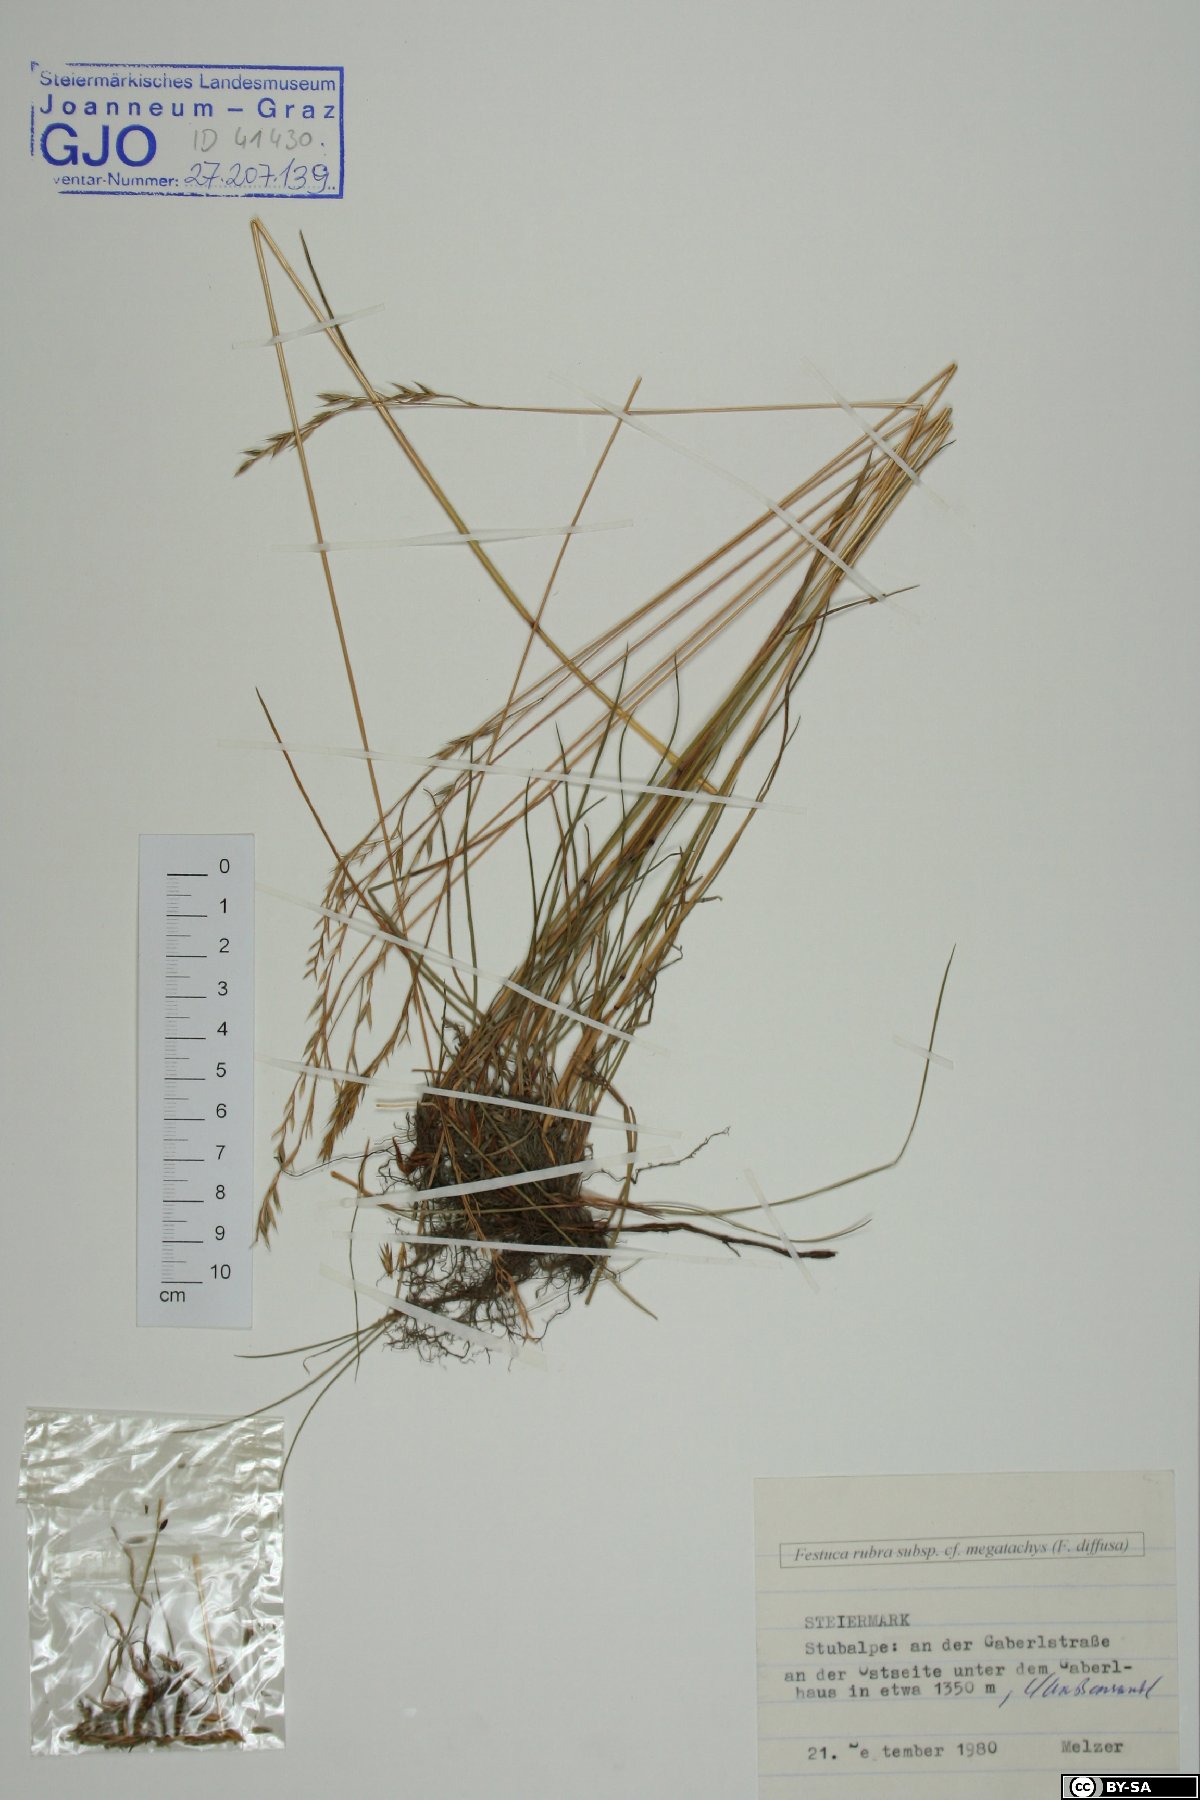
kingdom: Plantae
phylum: Tracheophyta
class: Liliopsida
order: Poales
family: Poaceae
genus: Festuca
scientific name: Festuca rubra
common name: Red fescue
